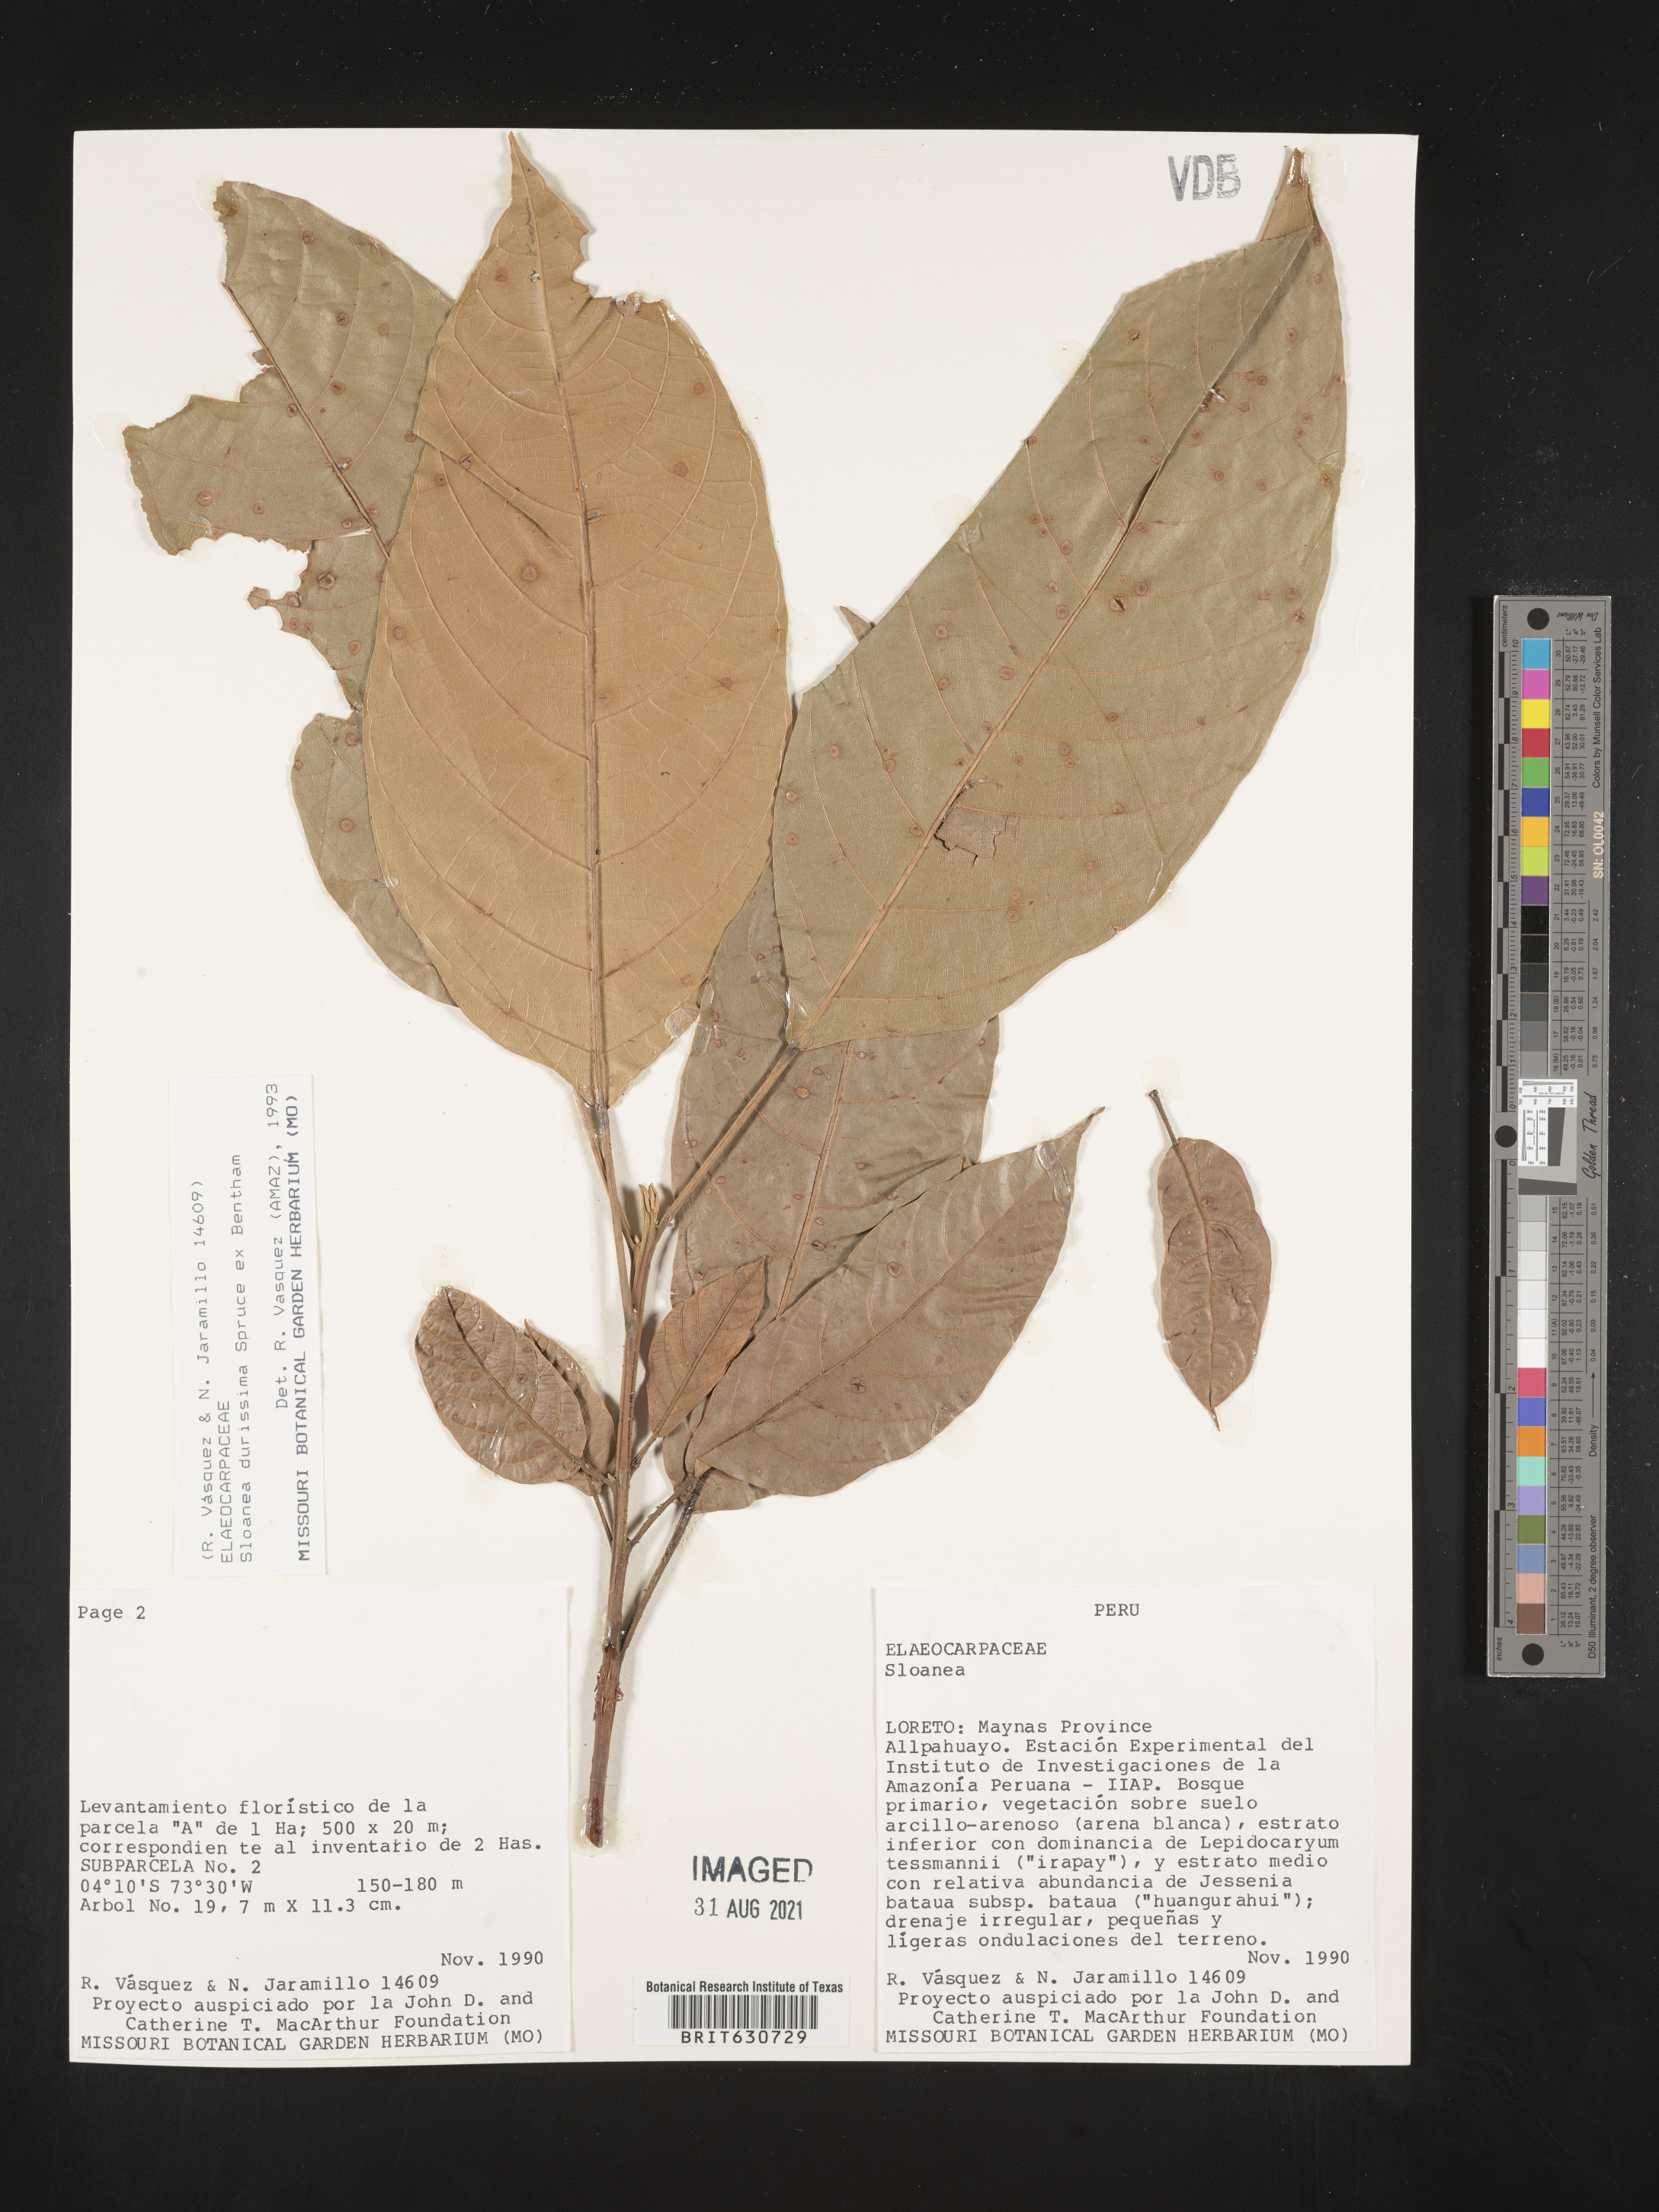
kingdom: Plantae
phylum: Tracheophyta
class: Magnoliopsida
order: Oxalidales
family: Elaeocarpaceae
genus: Sloanea
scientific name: Sloanea
